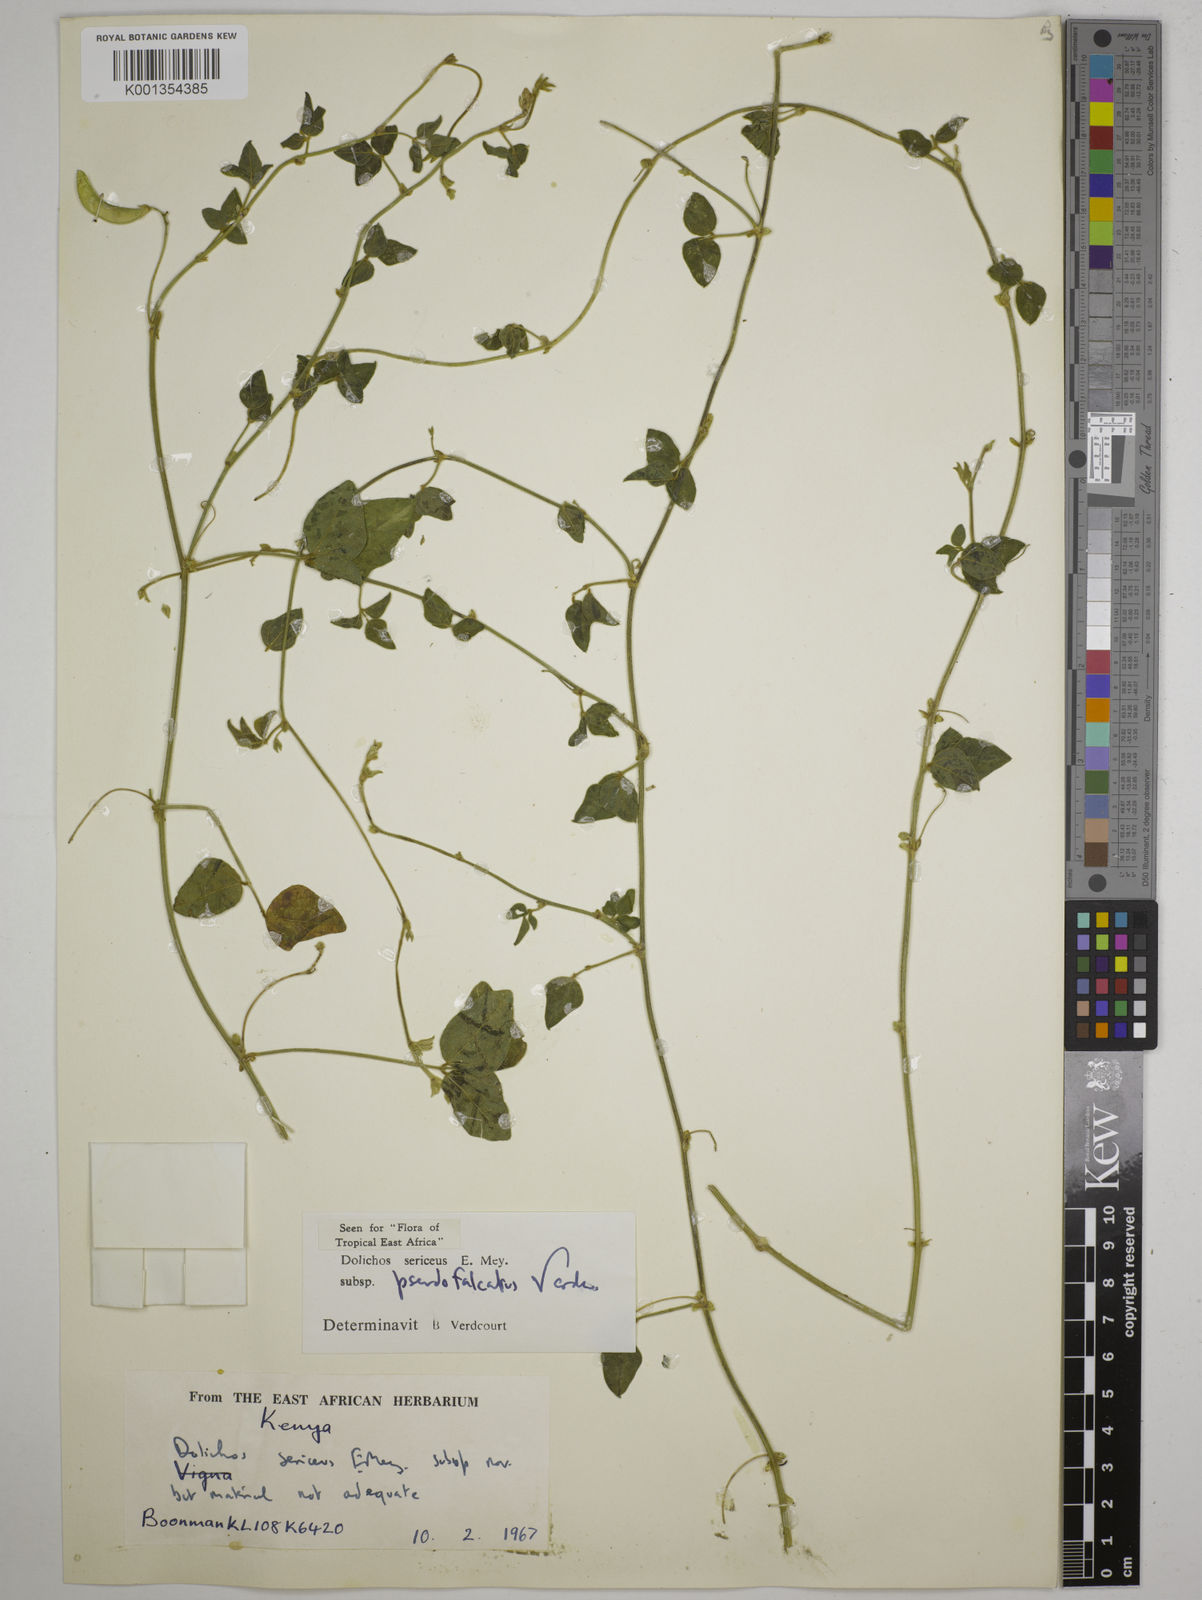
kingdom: Plantae
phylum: Tracheophyta
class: Magnoliopsida
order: Fabales
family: Fabaceae
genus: Dolichos
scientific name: Dolichos sericeus
